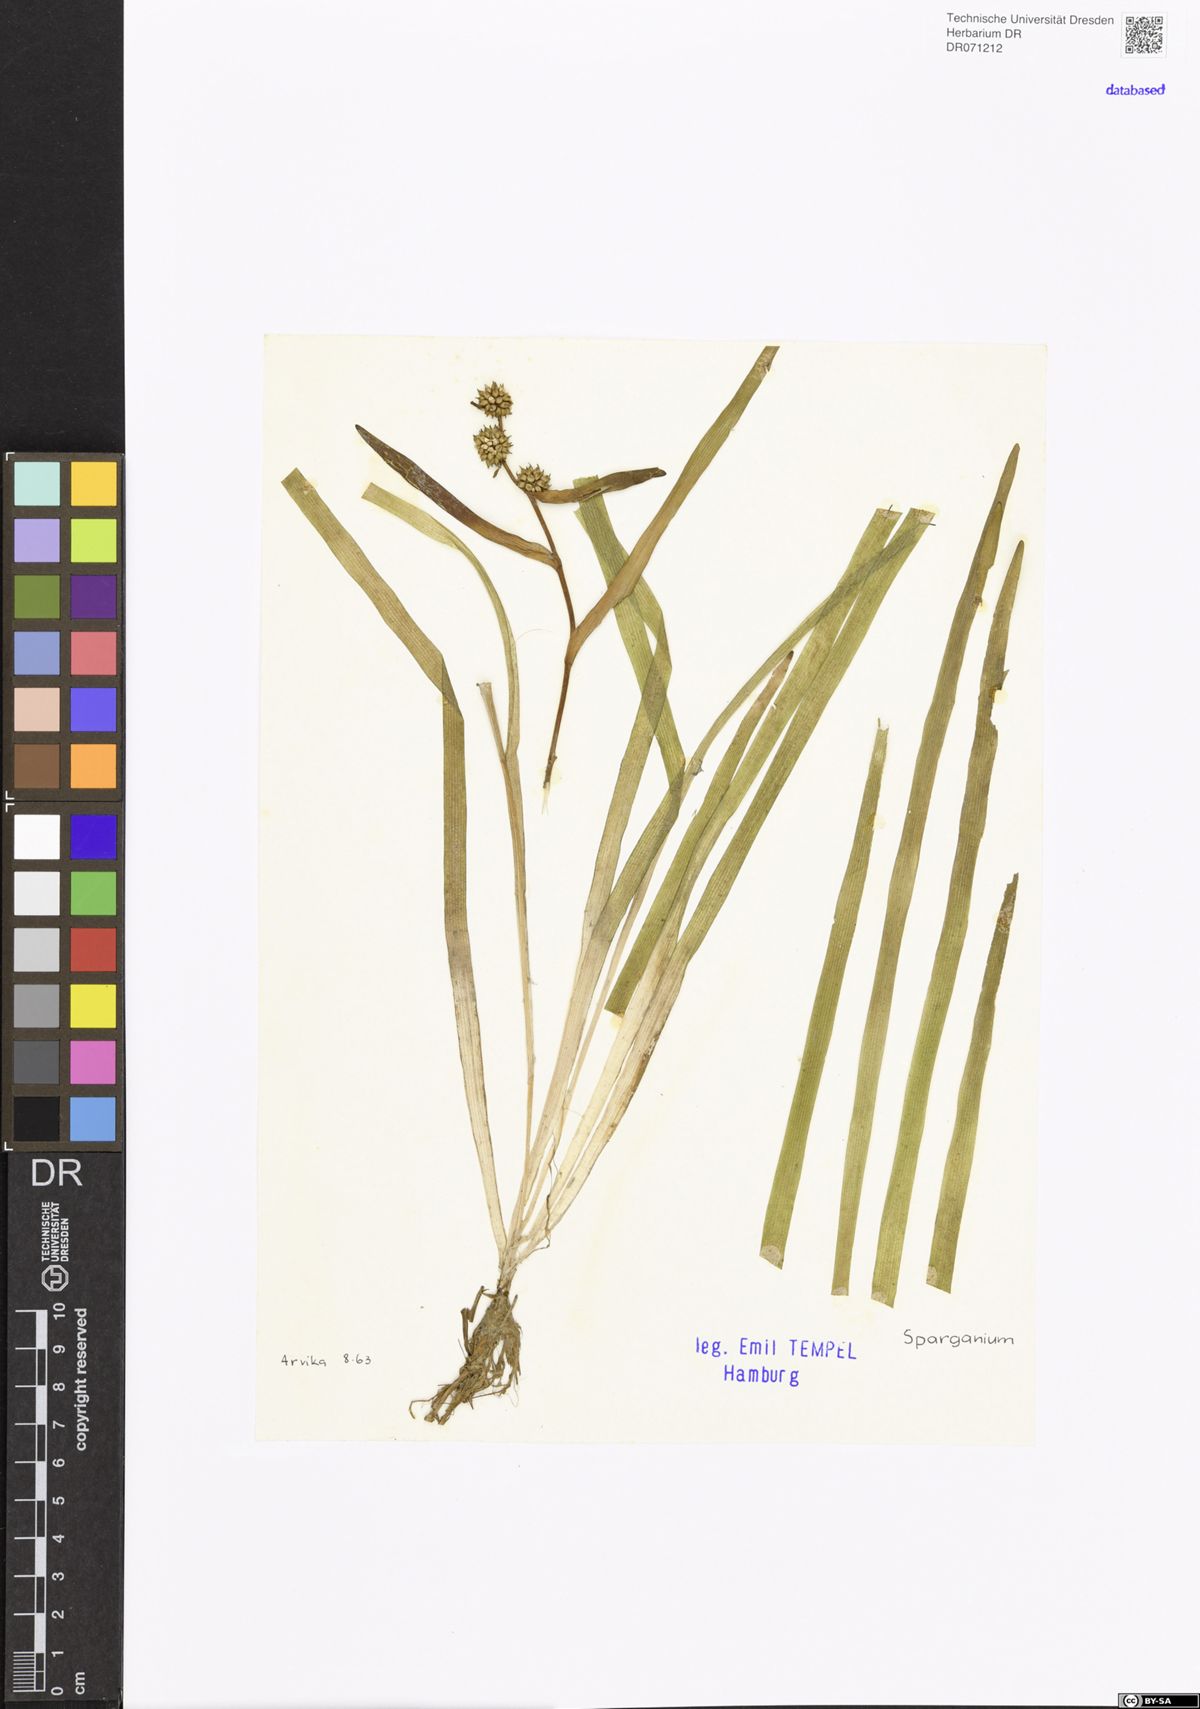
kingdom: Plantae
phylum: Tracheophyta
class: Liliopsida
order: Poales
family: Typhaceae
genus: Sparganium
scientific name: Sparganium
